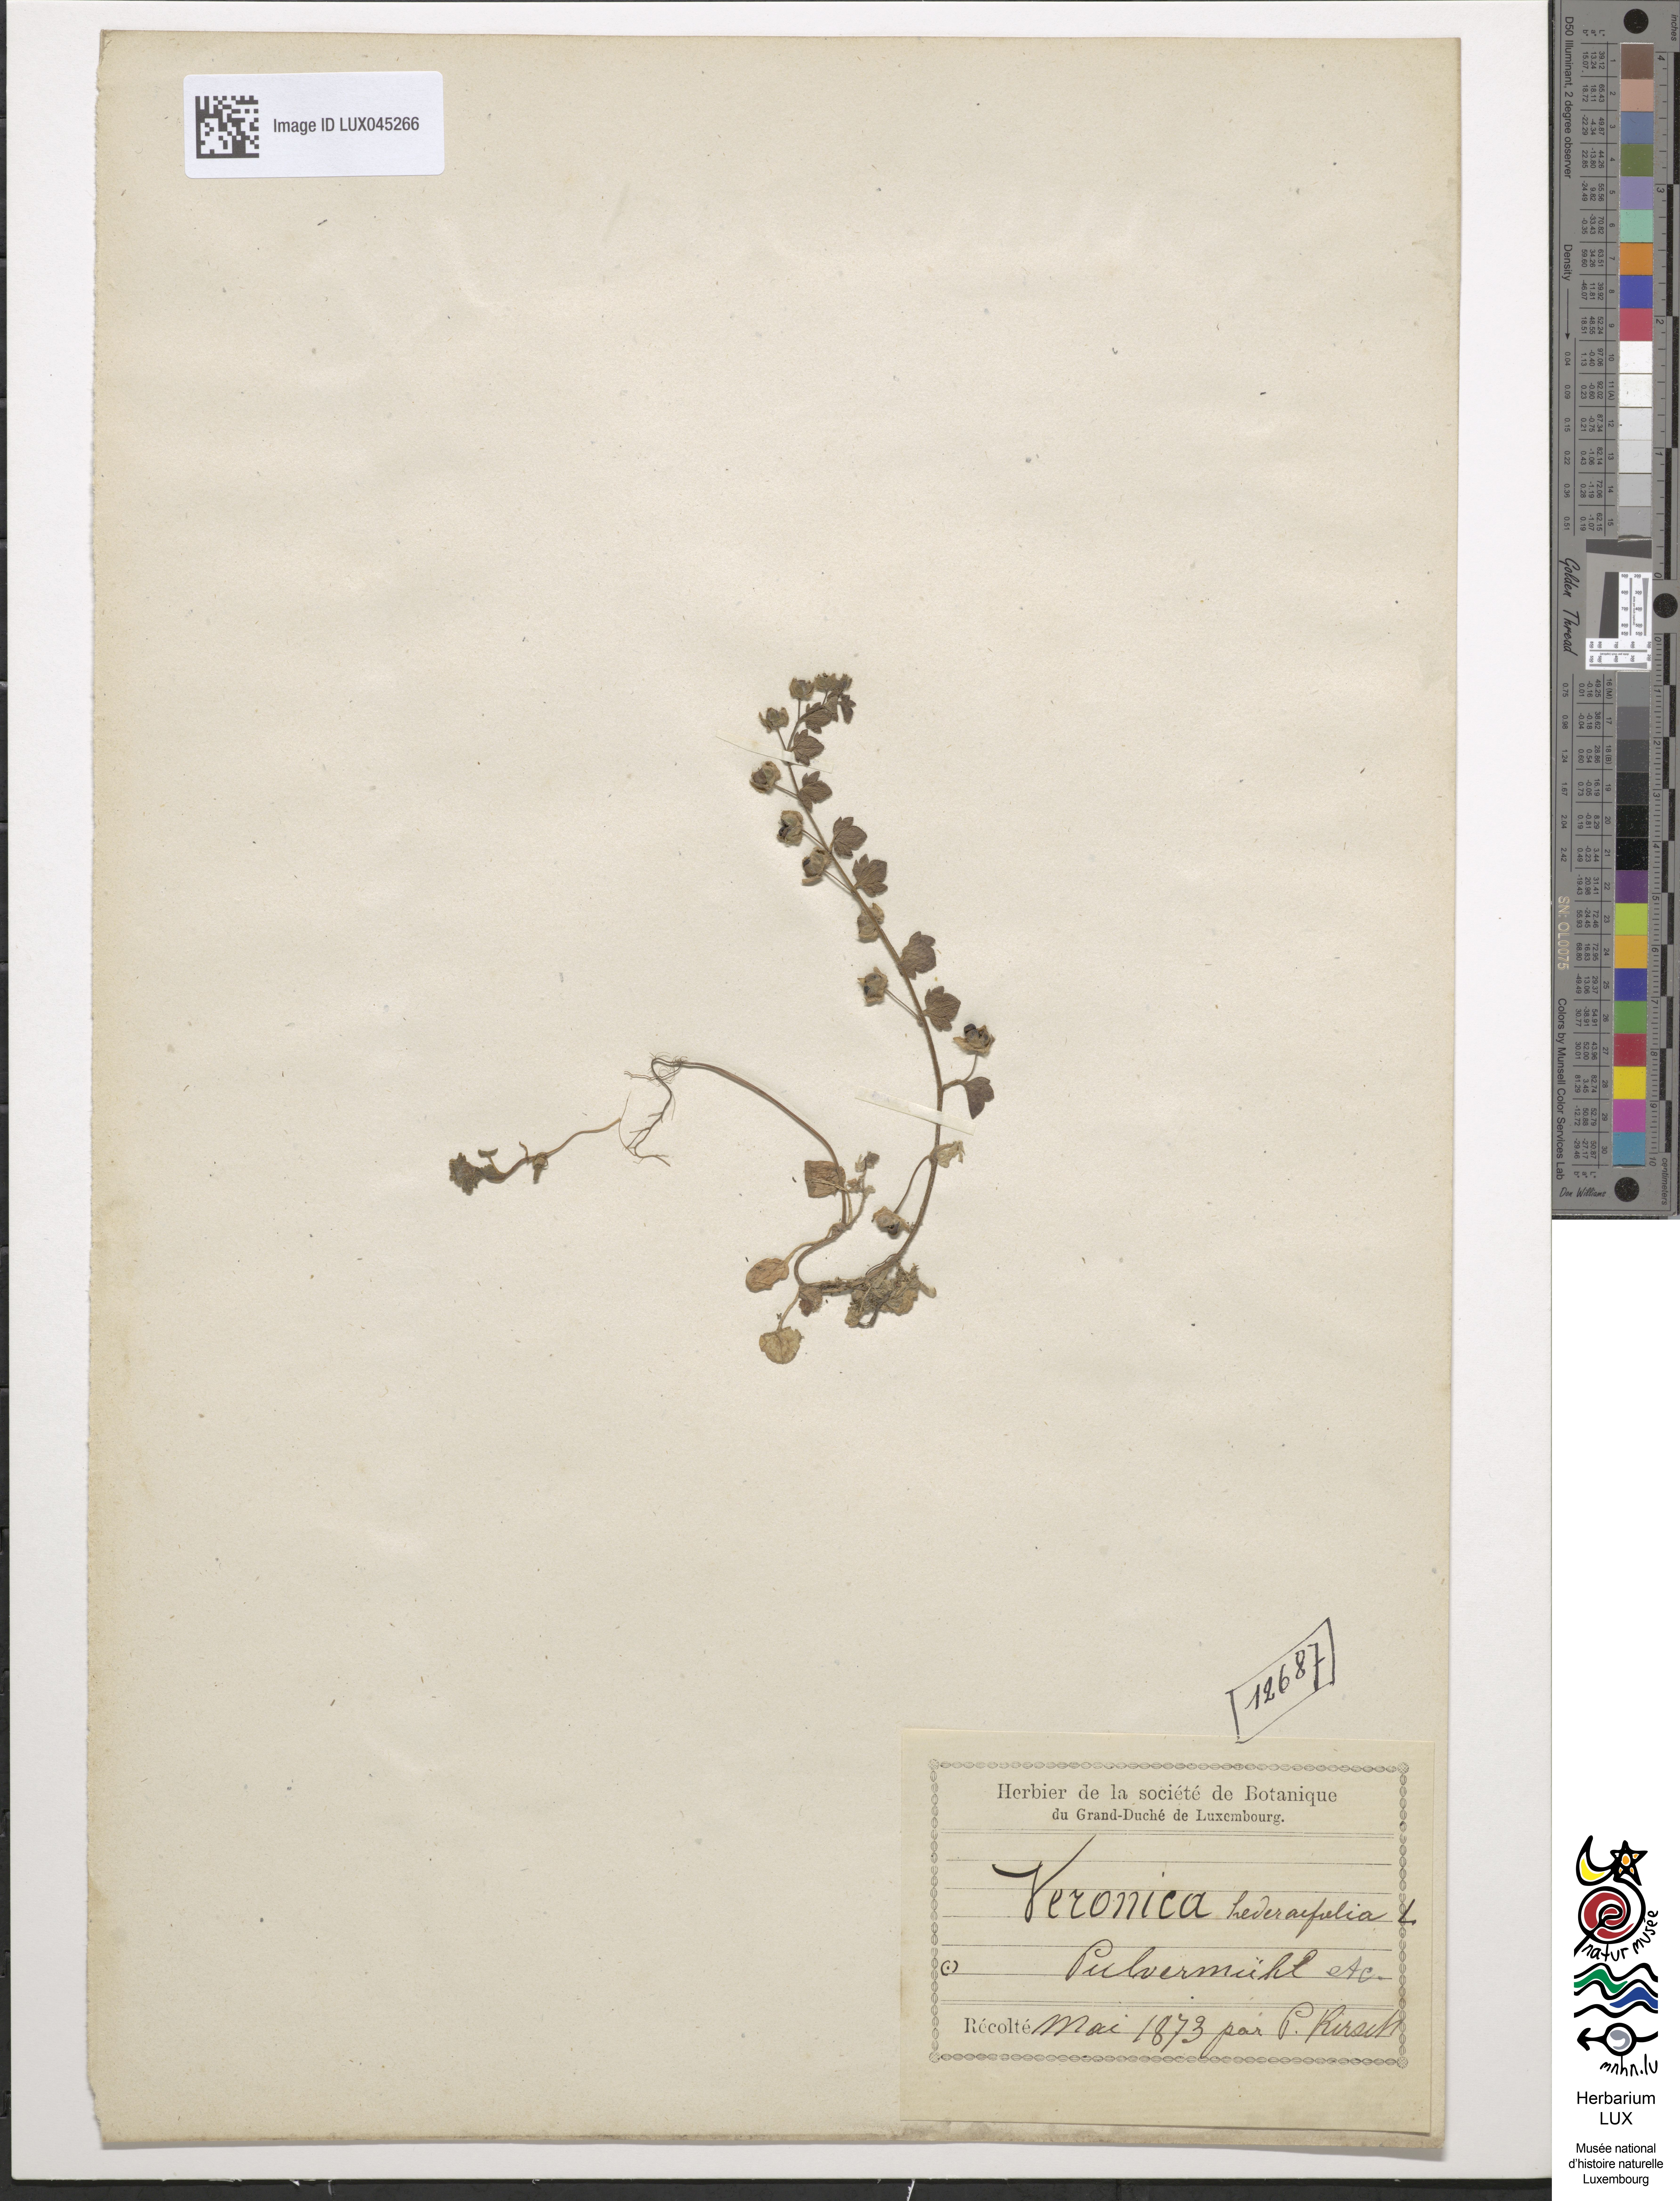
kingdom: Plantae
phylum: Tracheophyta
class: Magnoliopsida
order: Lamiales
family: Plantaginaceae
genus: Veronica
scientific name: Veronica hederifolia
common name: Ivy-leaved speedwell
